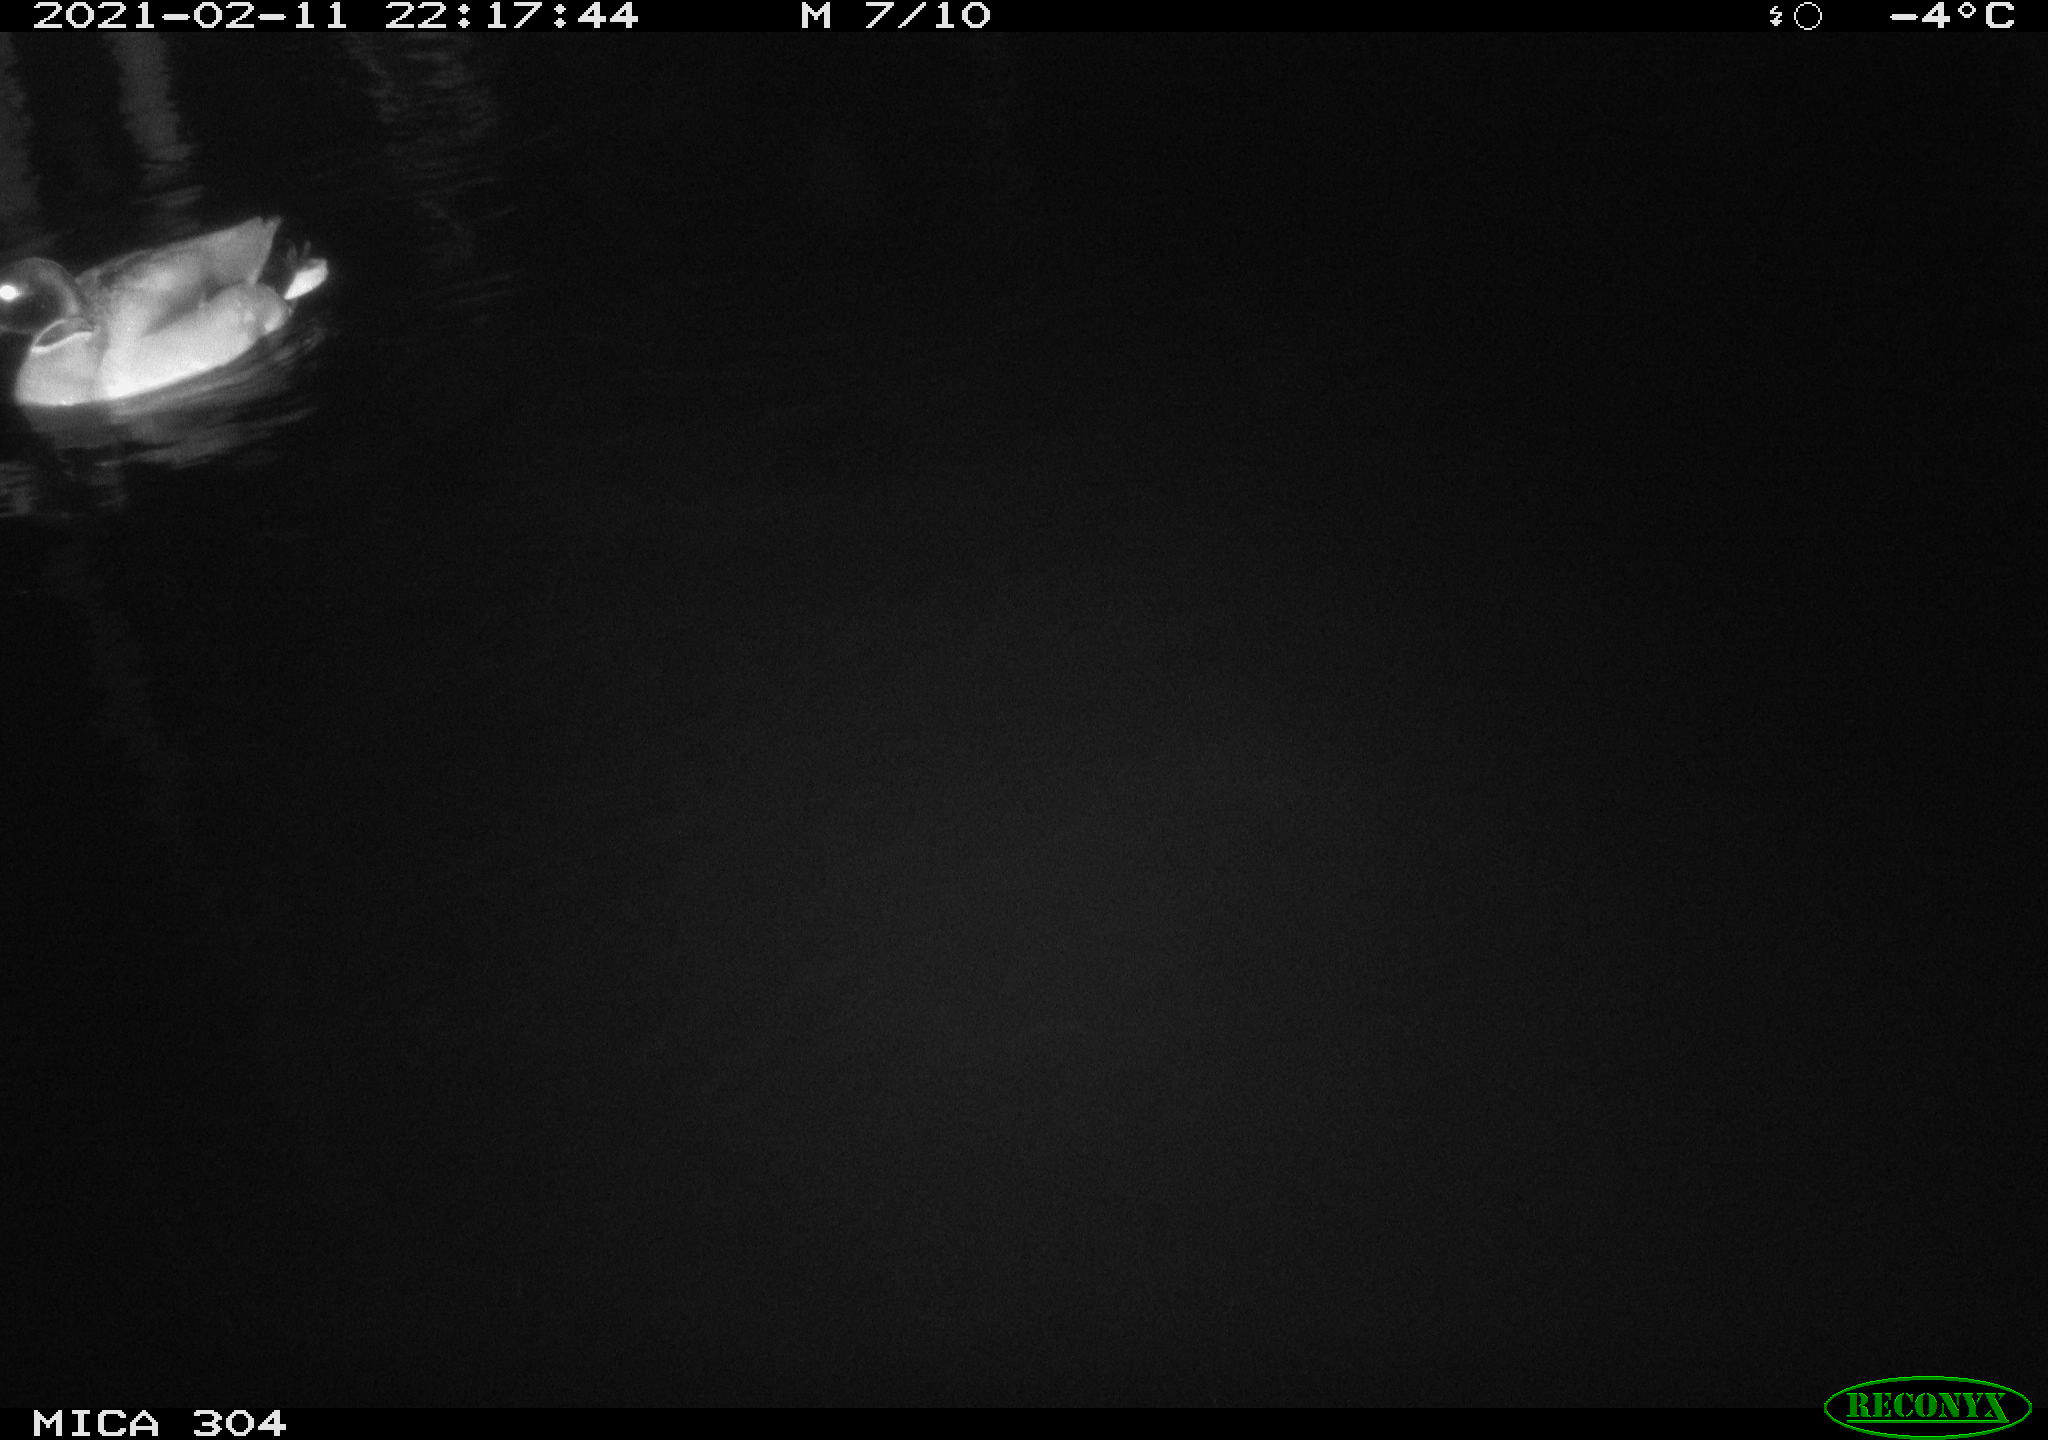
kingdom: Animalia
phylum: Chordata
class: Aves
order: Anseriformes
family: Anatidae
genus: Anas
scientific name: Anas platyrhynchos
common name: Mallard
